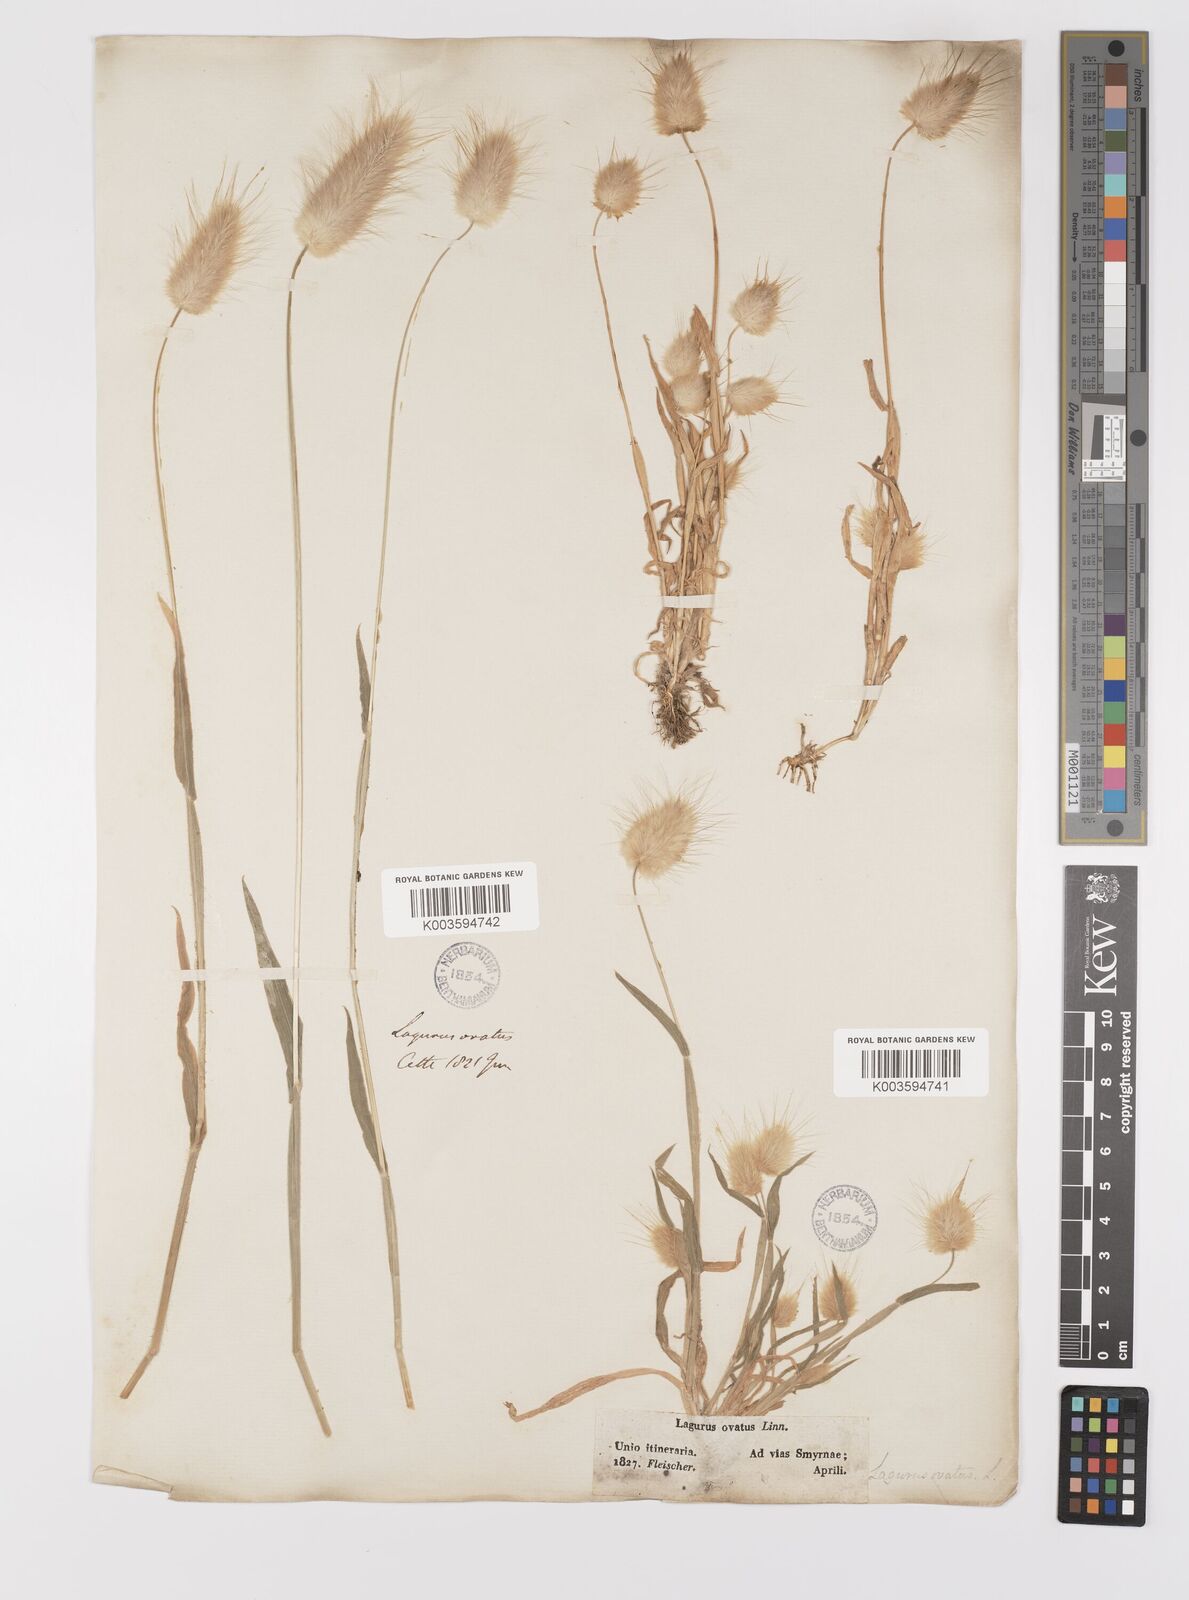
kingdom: Plantae
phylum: Tracheophyta
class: Liliopsida
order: Poales
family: Poaceae
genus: Lagurus
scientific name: Lagurus ovatus
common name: Hare's-tail
